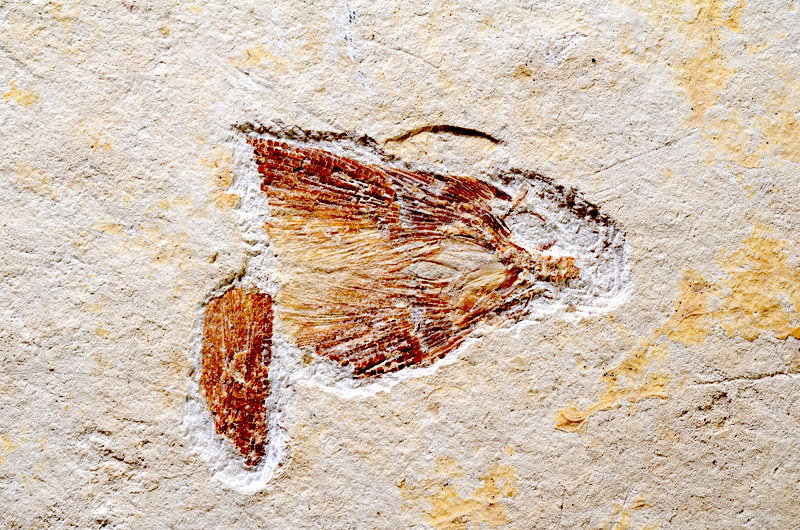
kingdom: Animalia
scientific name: Animalia
